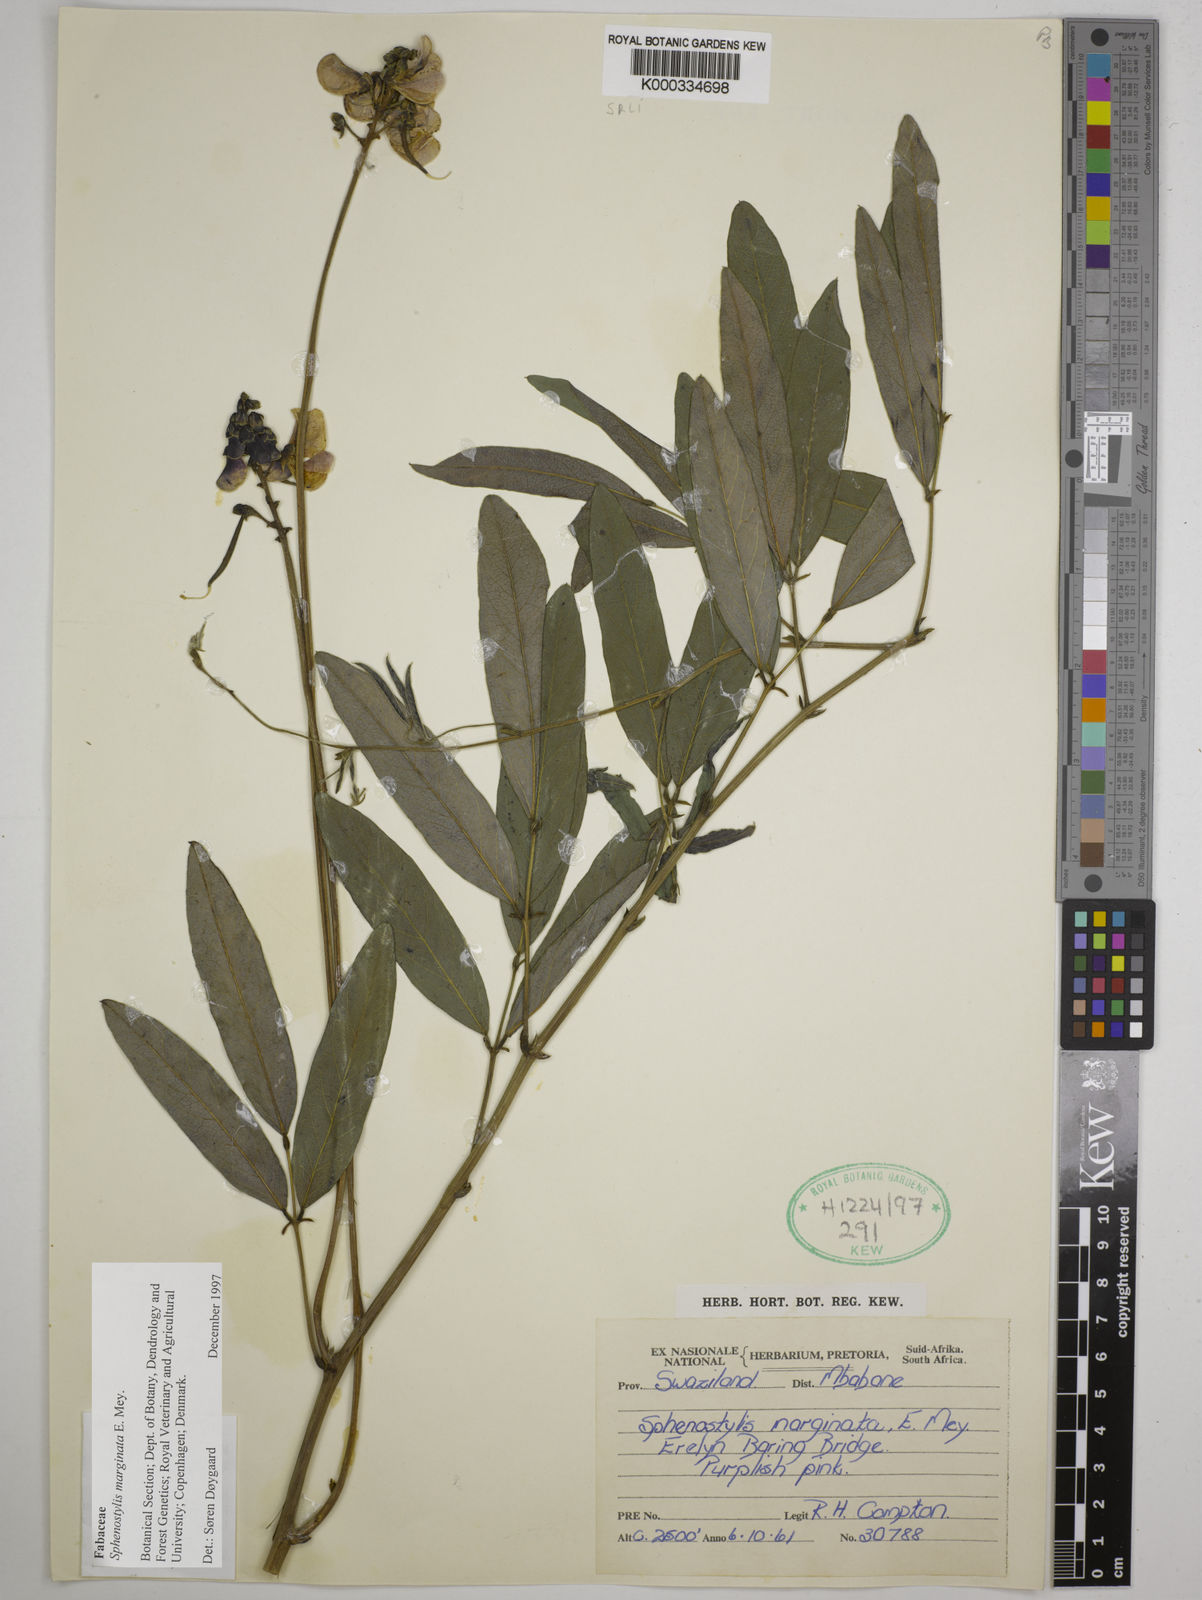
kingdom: Plantae
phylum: Tracheophyta
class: Magnoliopsida
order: Fabales
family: Fabaceae
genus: Sphenostylis
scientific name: Sphenostylis marginata
